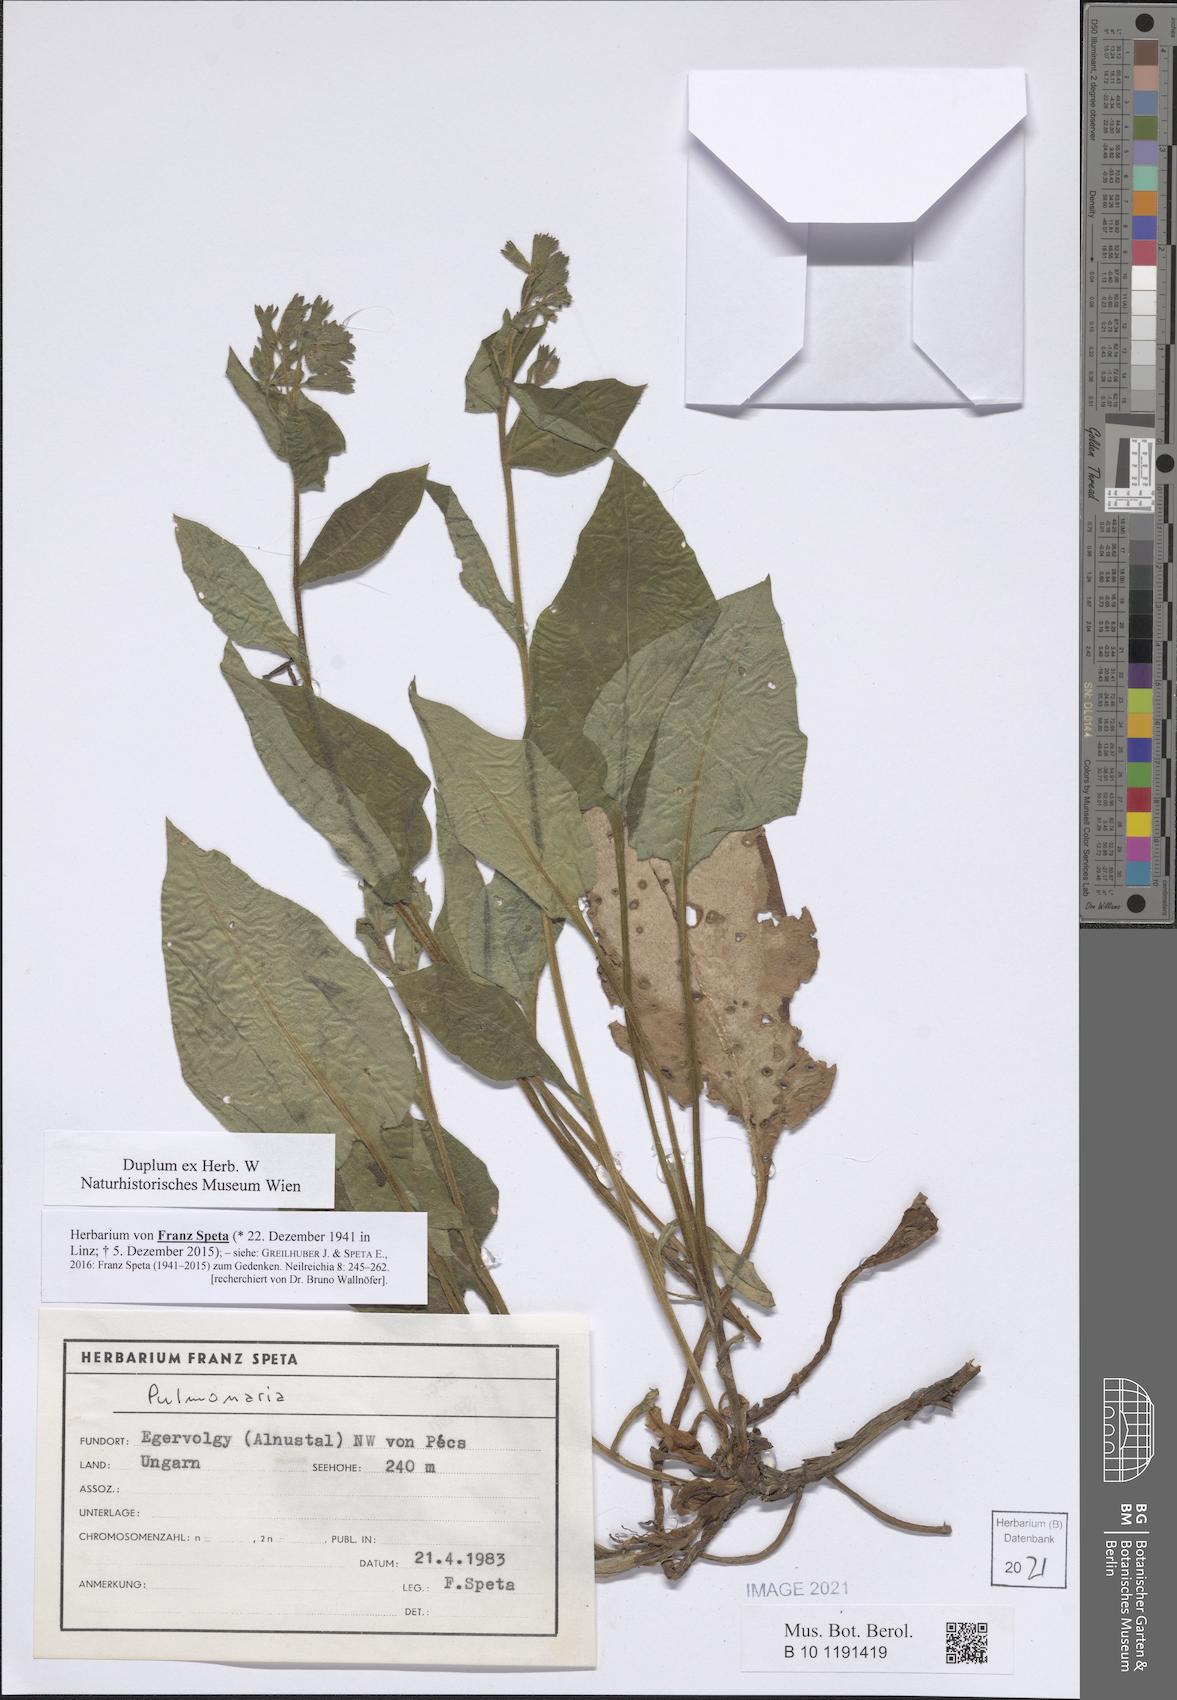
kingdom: Plantae
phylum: Tracheophyta
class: Magnoliopsida
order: Boraginales
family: Boraginaceae
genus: Pulmonaria
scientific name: Pulmonaria
